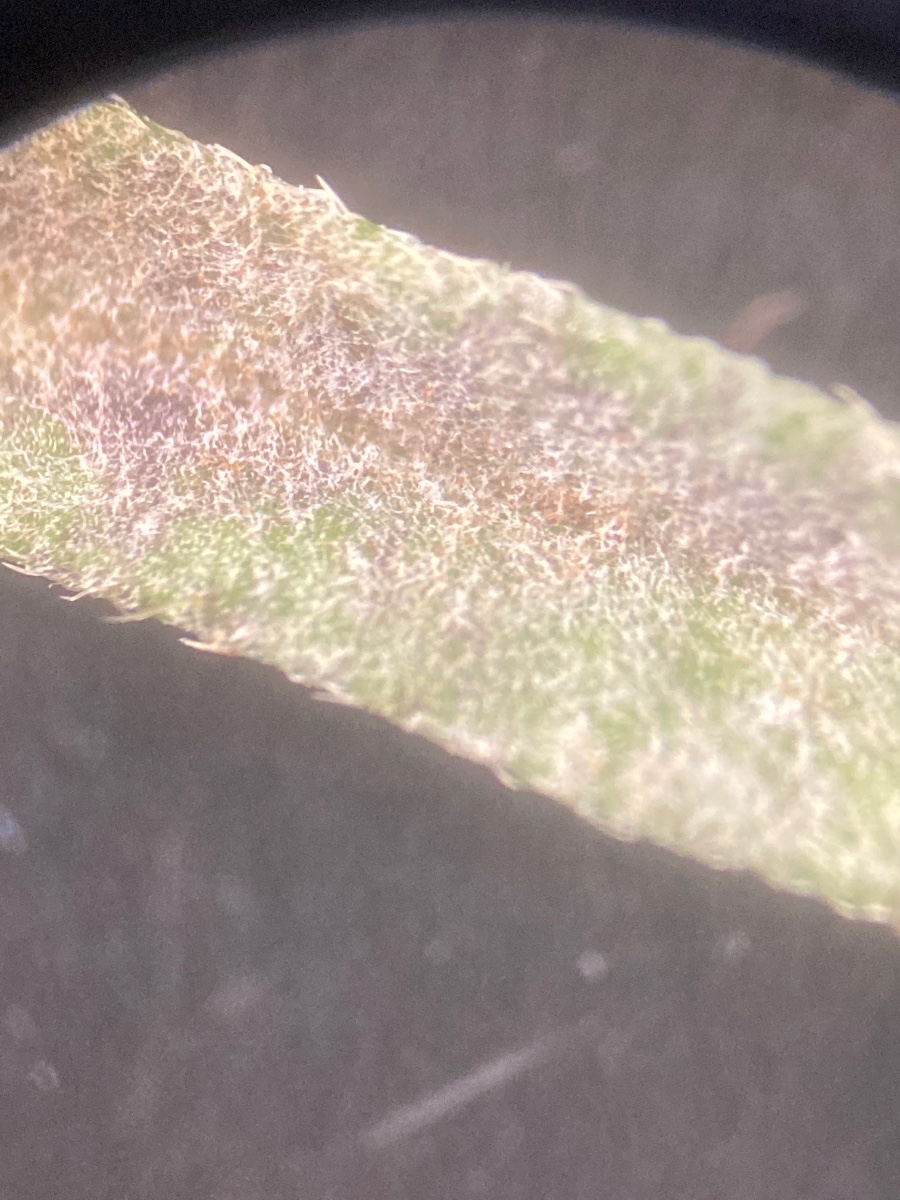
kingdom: Fungi
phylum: Ascomycota
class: Leotiomycetes
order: Helotiales
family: Erysiphaceae
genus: Erysiphe
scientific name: Erysiphe knautiae
